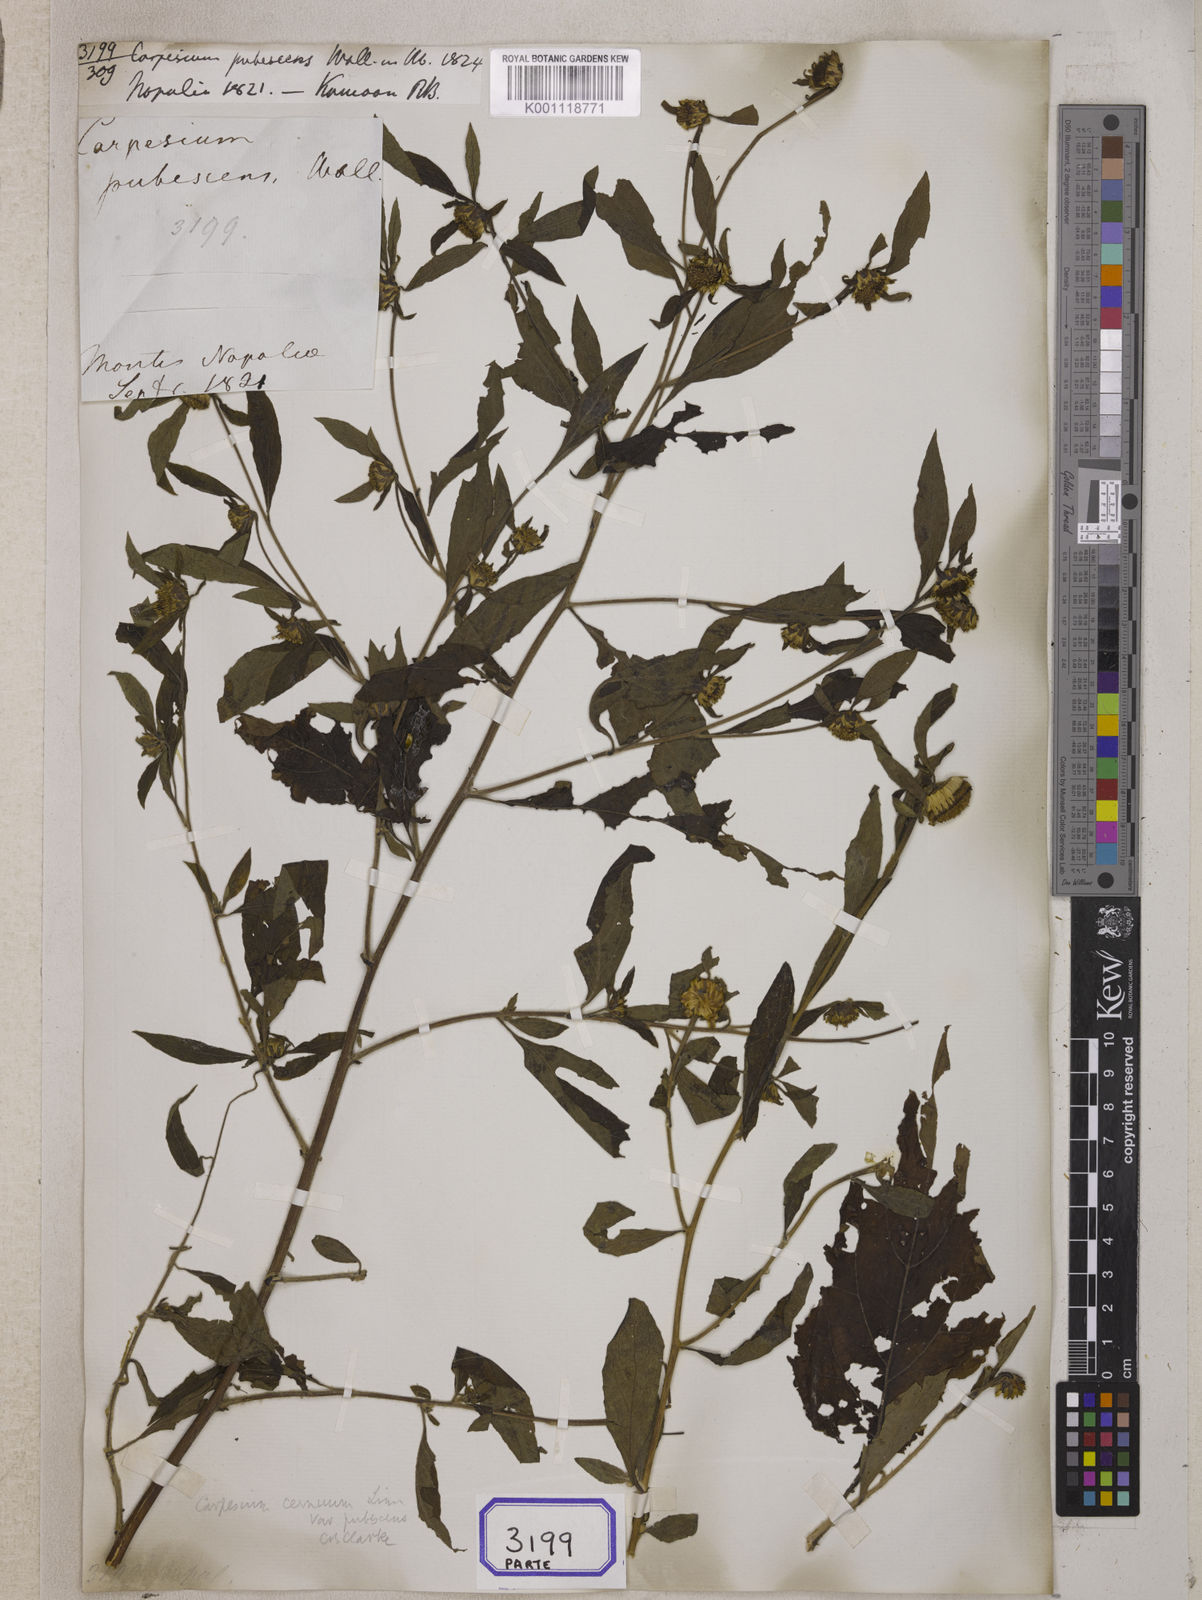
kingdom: Plantae
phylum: Tracheophyta
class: Magnoliopsida
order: Asterales
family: Asteraceae
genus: Carpesium
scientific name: Carpesium cernuum
